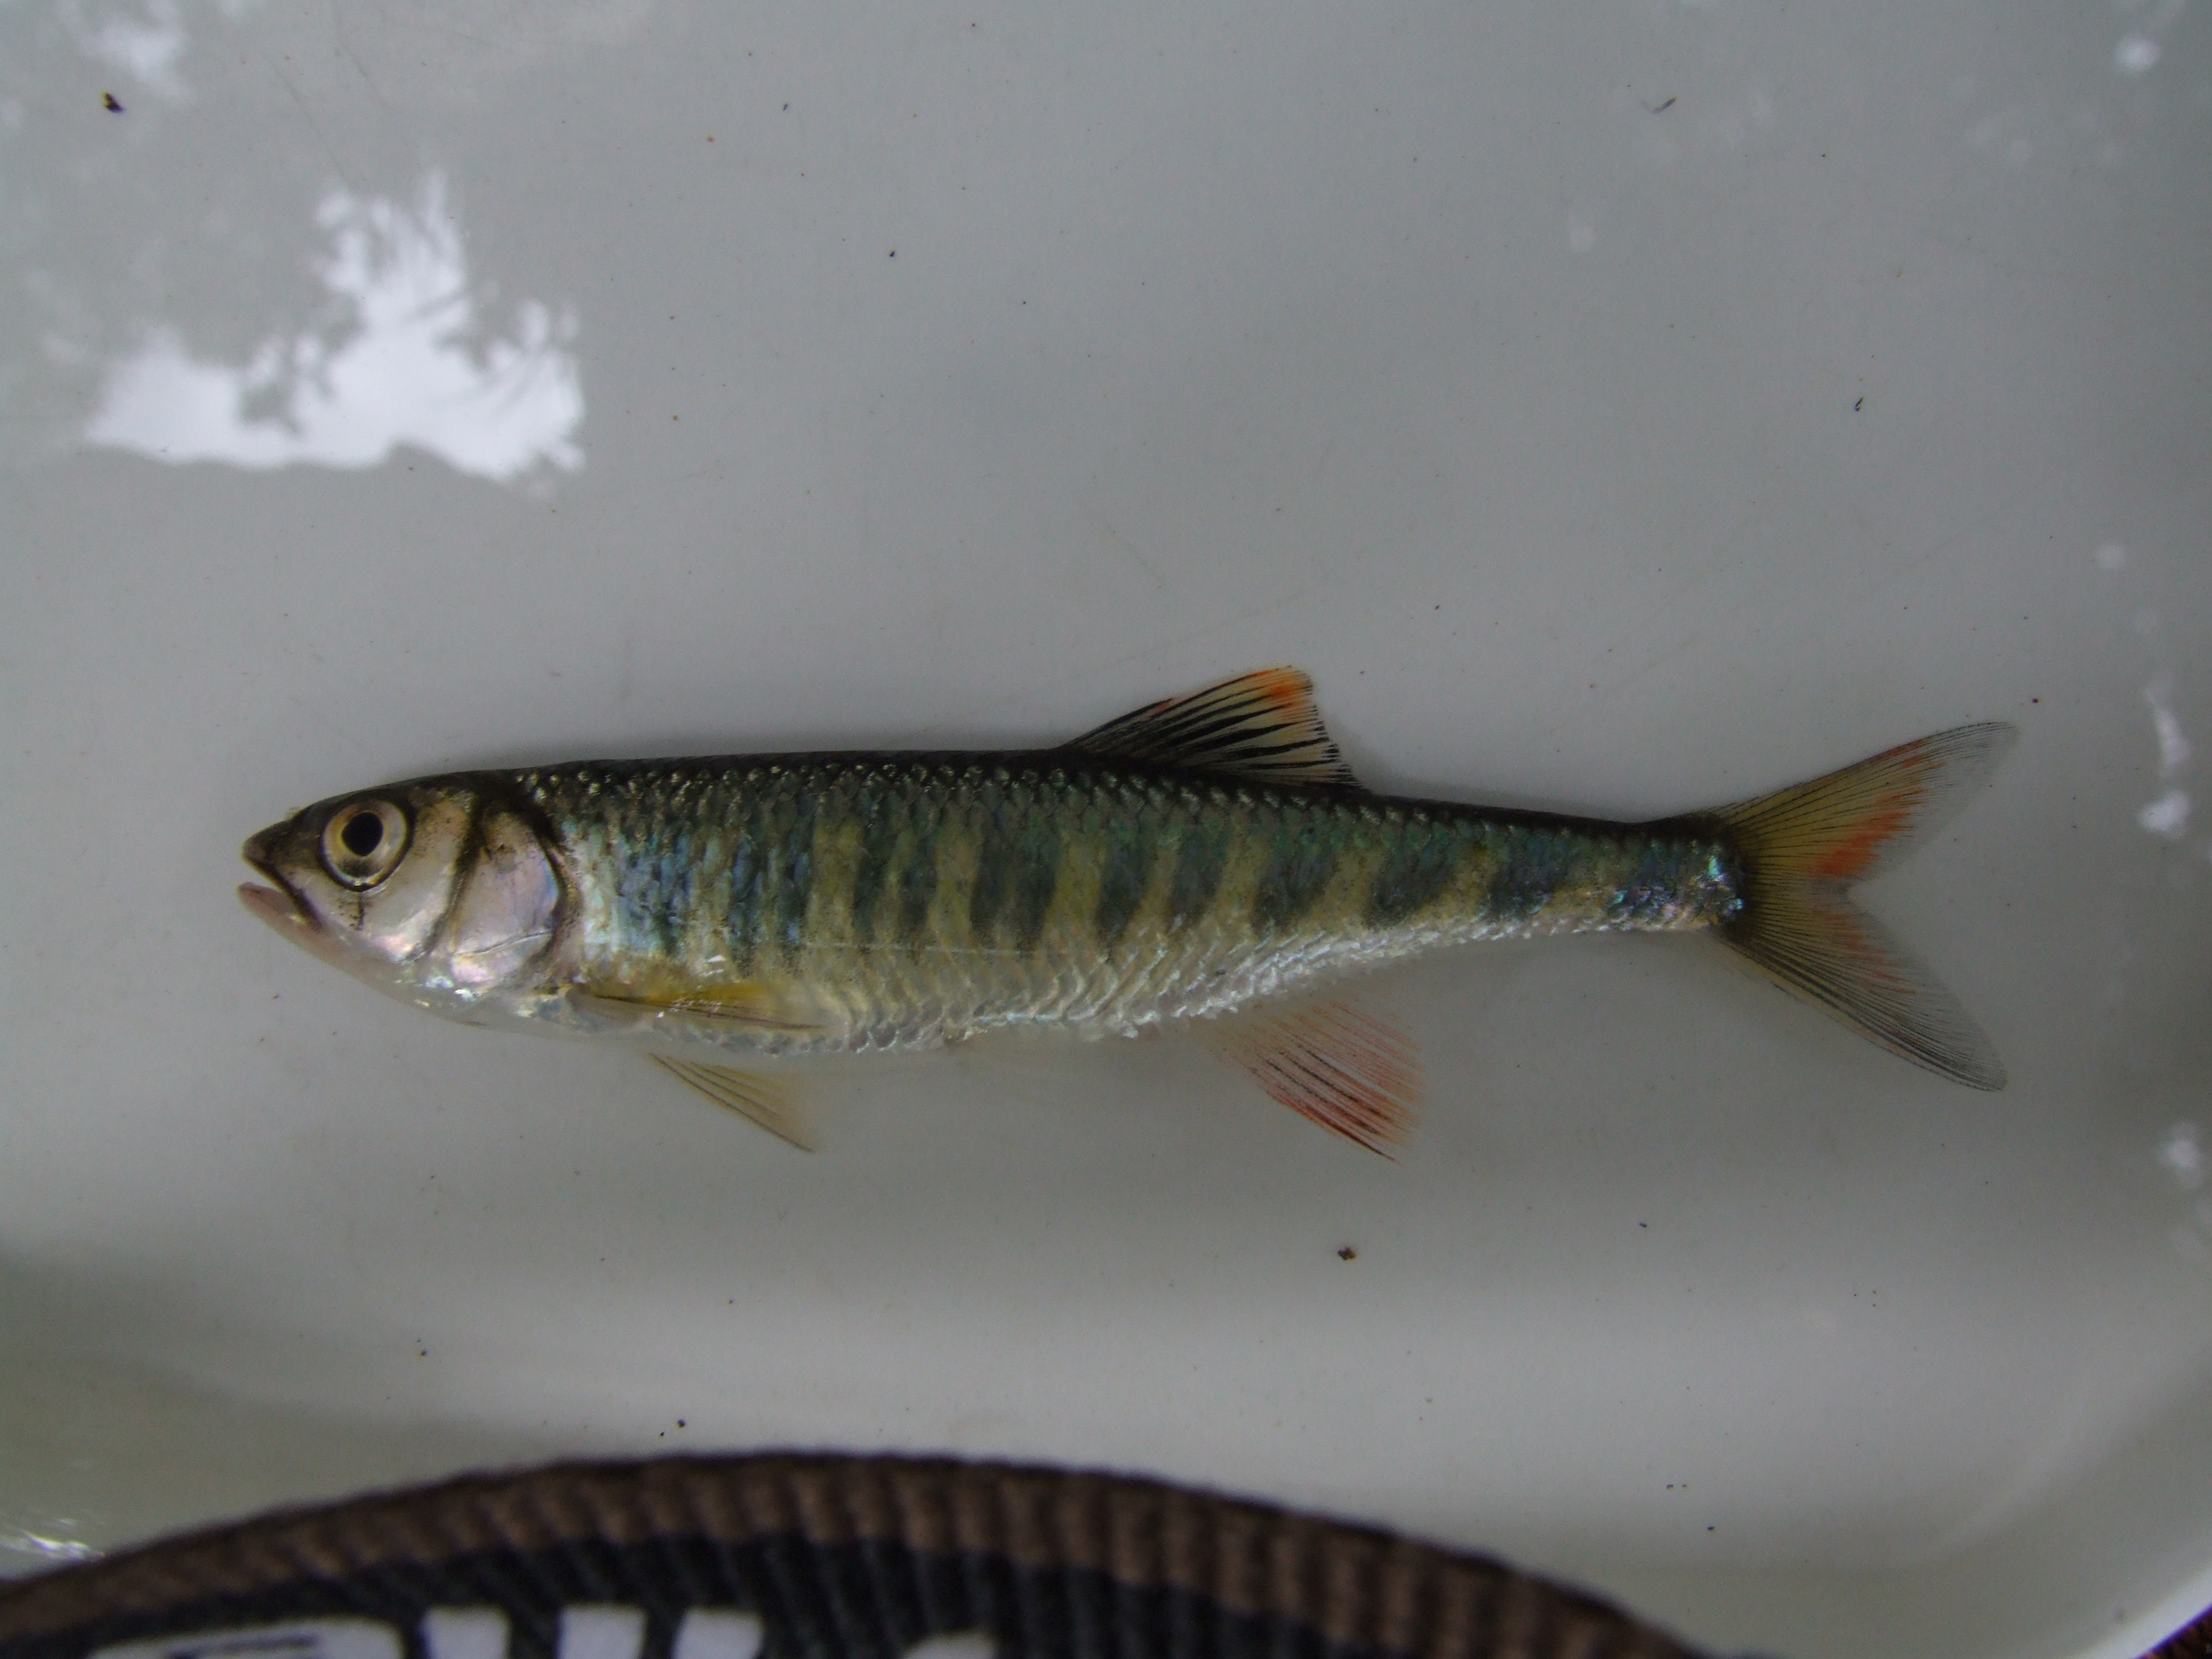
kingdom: Animalia
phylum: Chordata
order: Cypriniformes
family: Cyprinidae
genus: Opsaridium
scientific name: Opsaridium zambezense
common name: Barred minnow
